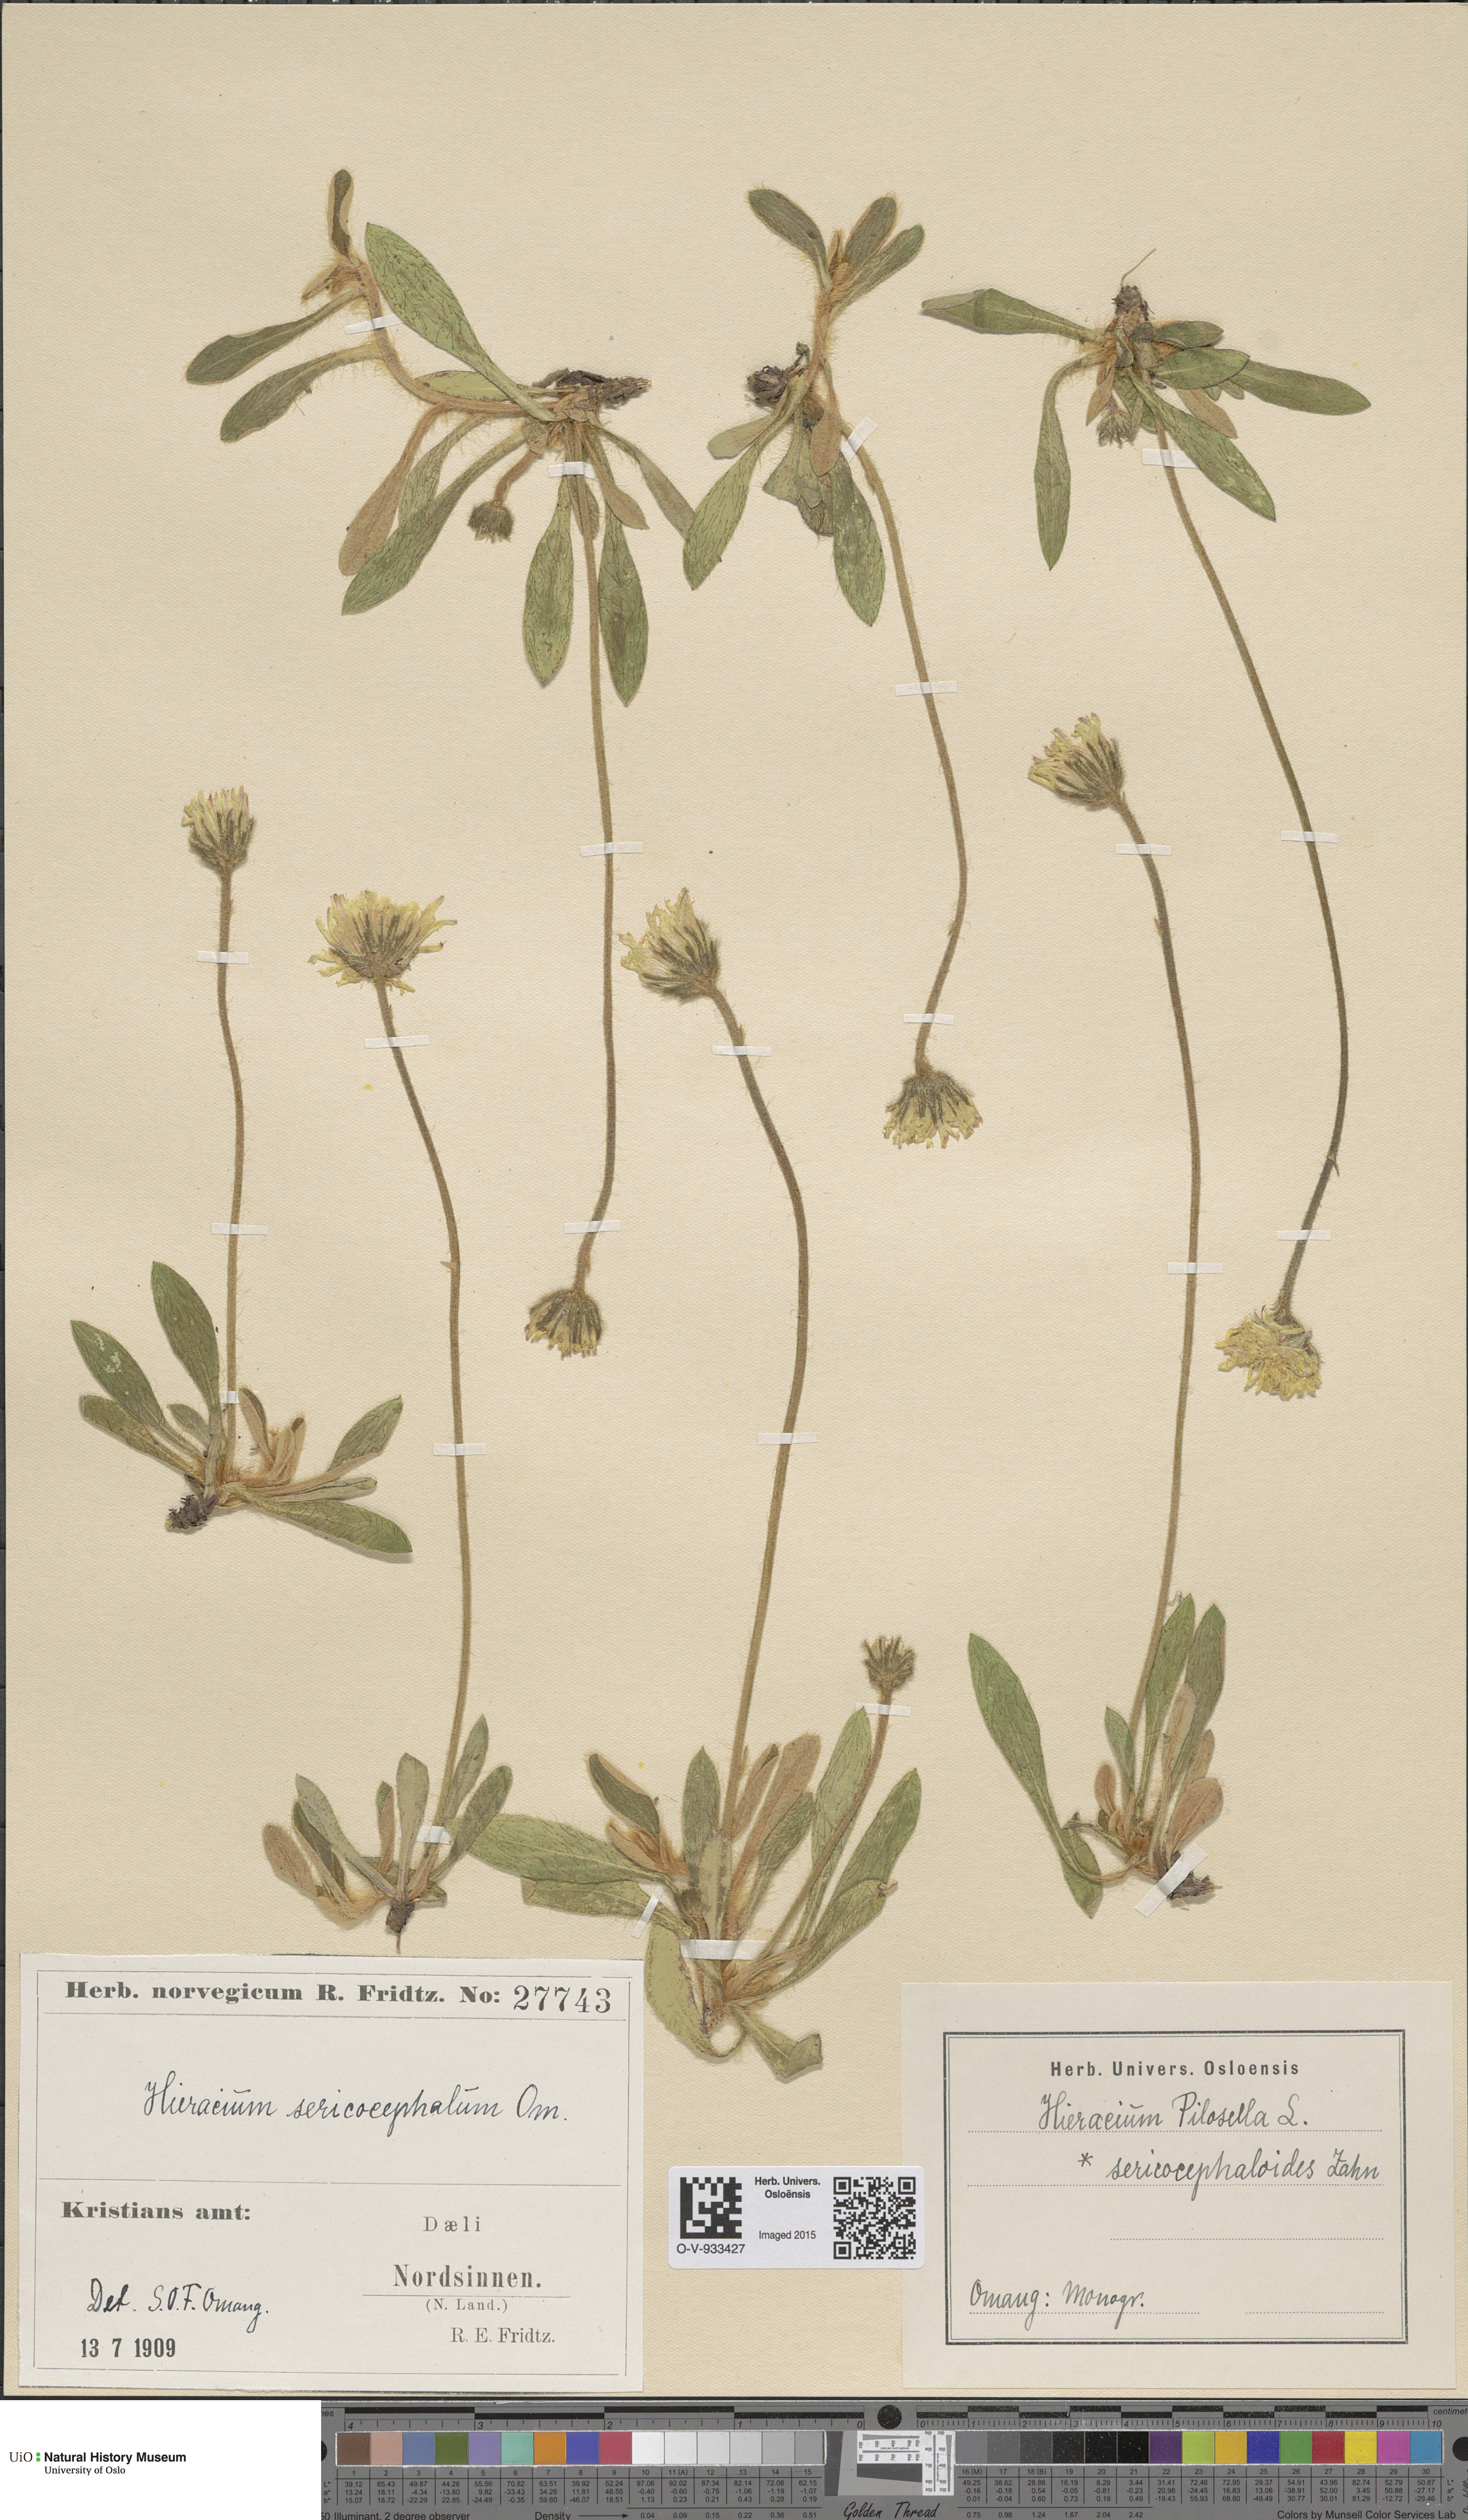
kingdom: Plantae
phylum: Tracheophyta
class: Magnoliopsida
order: Asterales
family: Asteraceae
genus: Pilosella
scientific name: Pilosella officinarum
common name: Mouse-ear hawkweed
